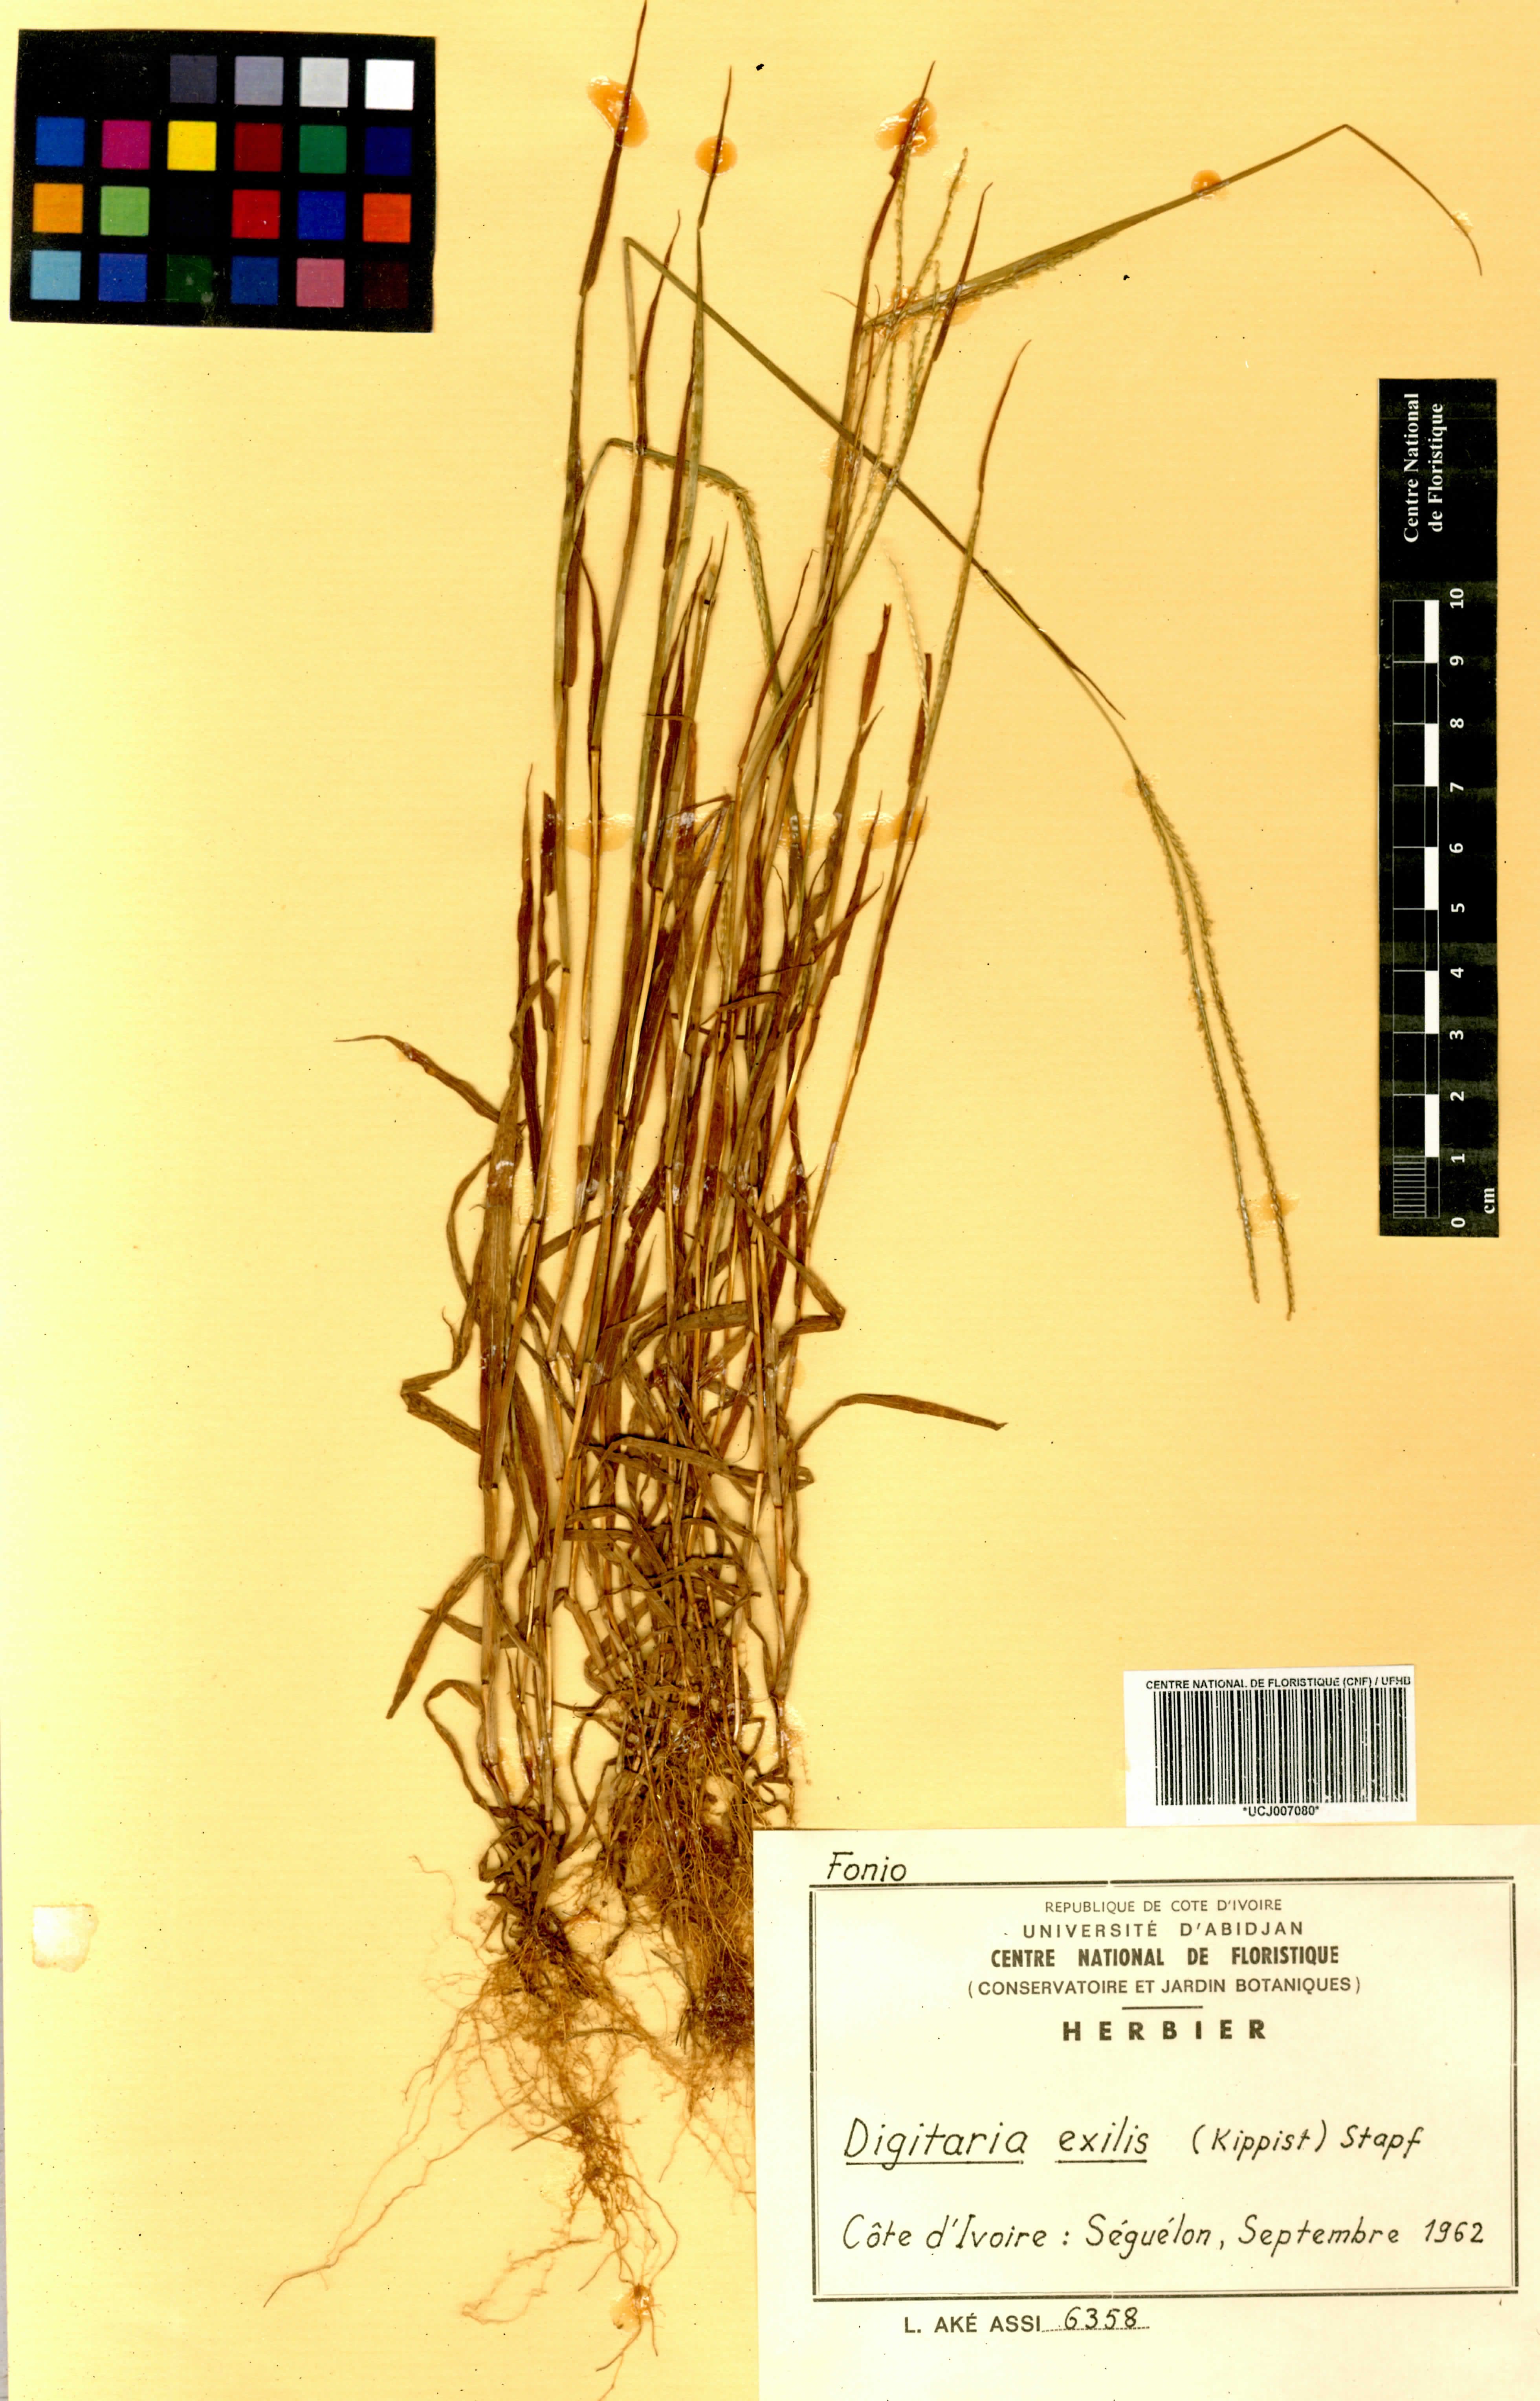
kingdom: Plantae
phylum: Tracheophyta
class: Liliopsida
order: Poales
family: Poaceae
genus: Digitaria
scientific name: Digitaria exilis
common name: Fonio millet
